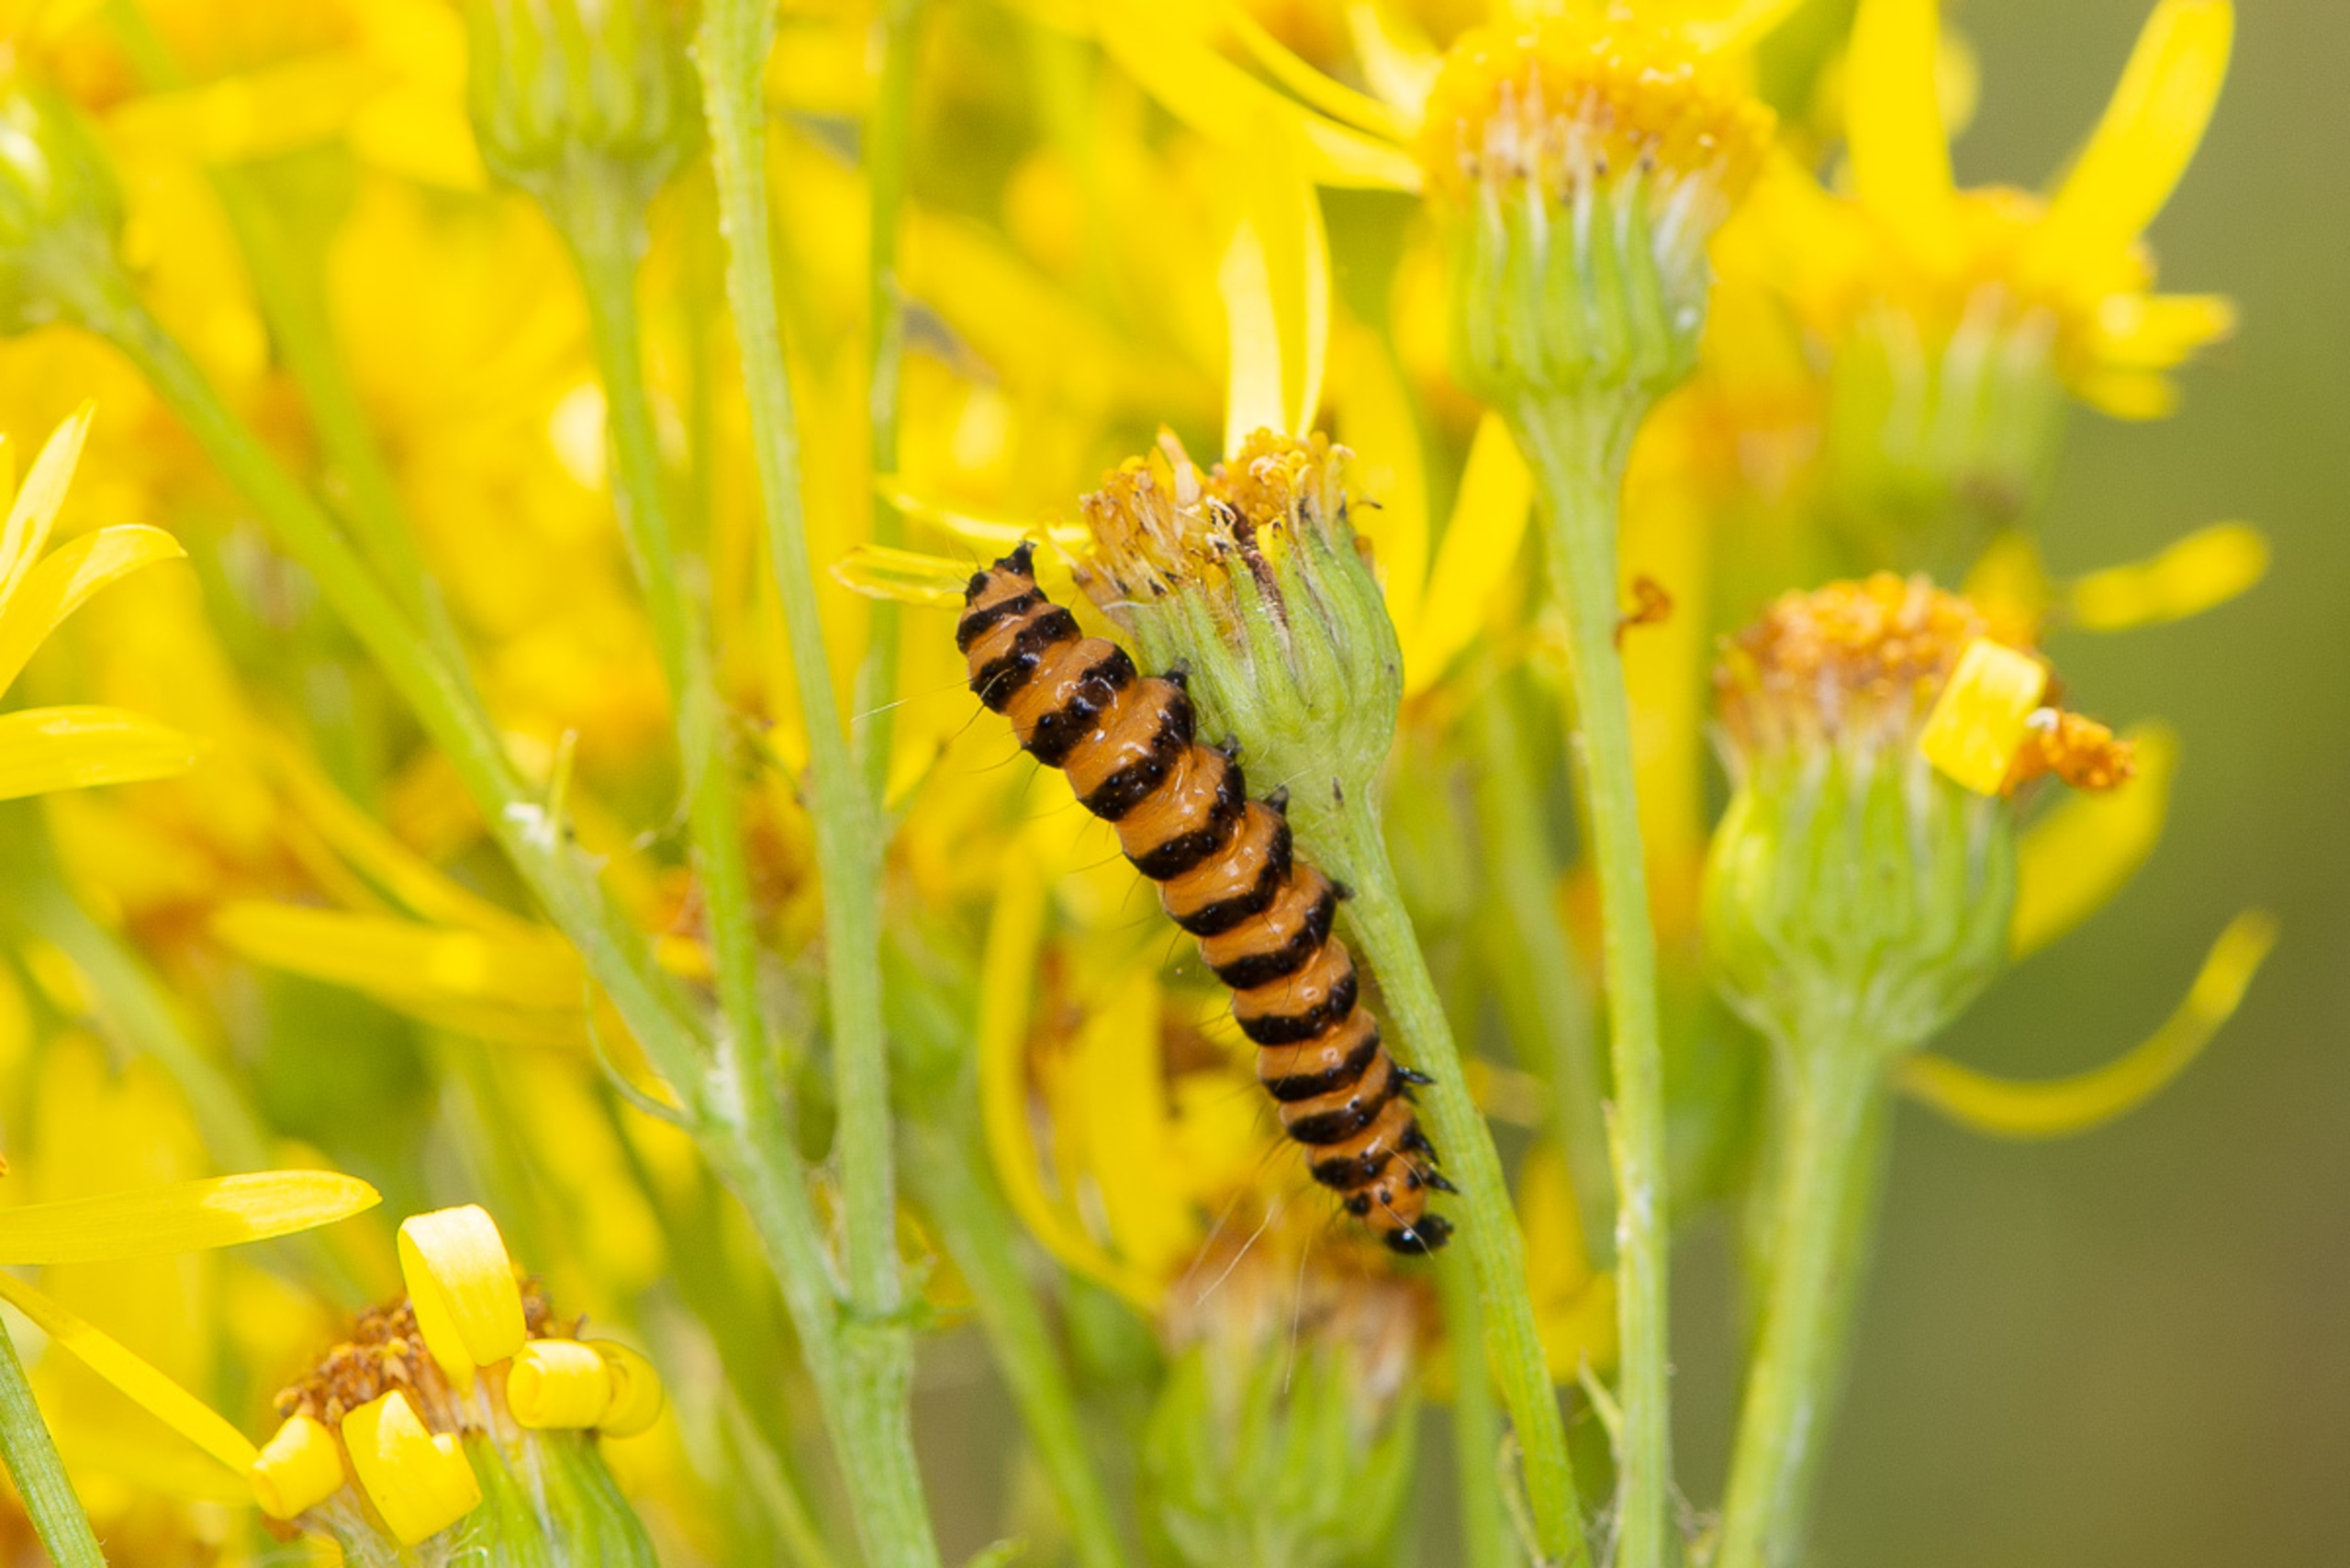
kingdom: Animalia
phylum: Arthropoda
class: Insecta
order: Lepidoptera
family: Erebidae
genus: Tyria
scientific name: Tyria jacobaeae
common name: Blodplet
